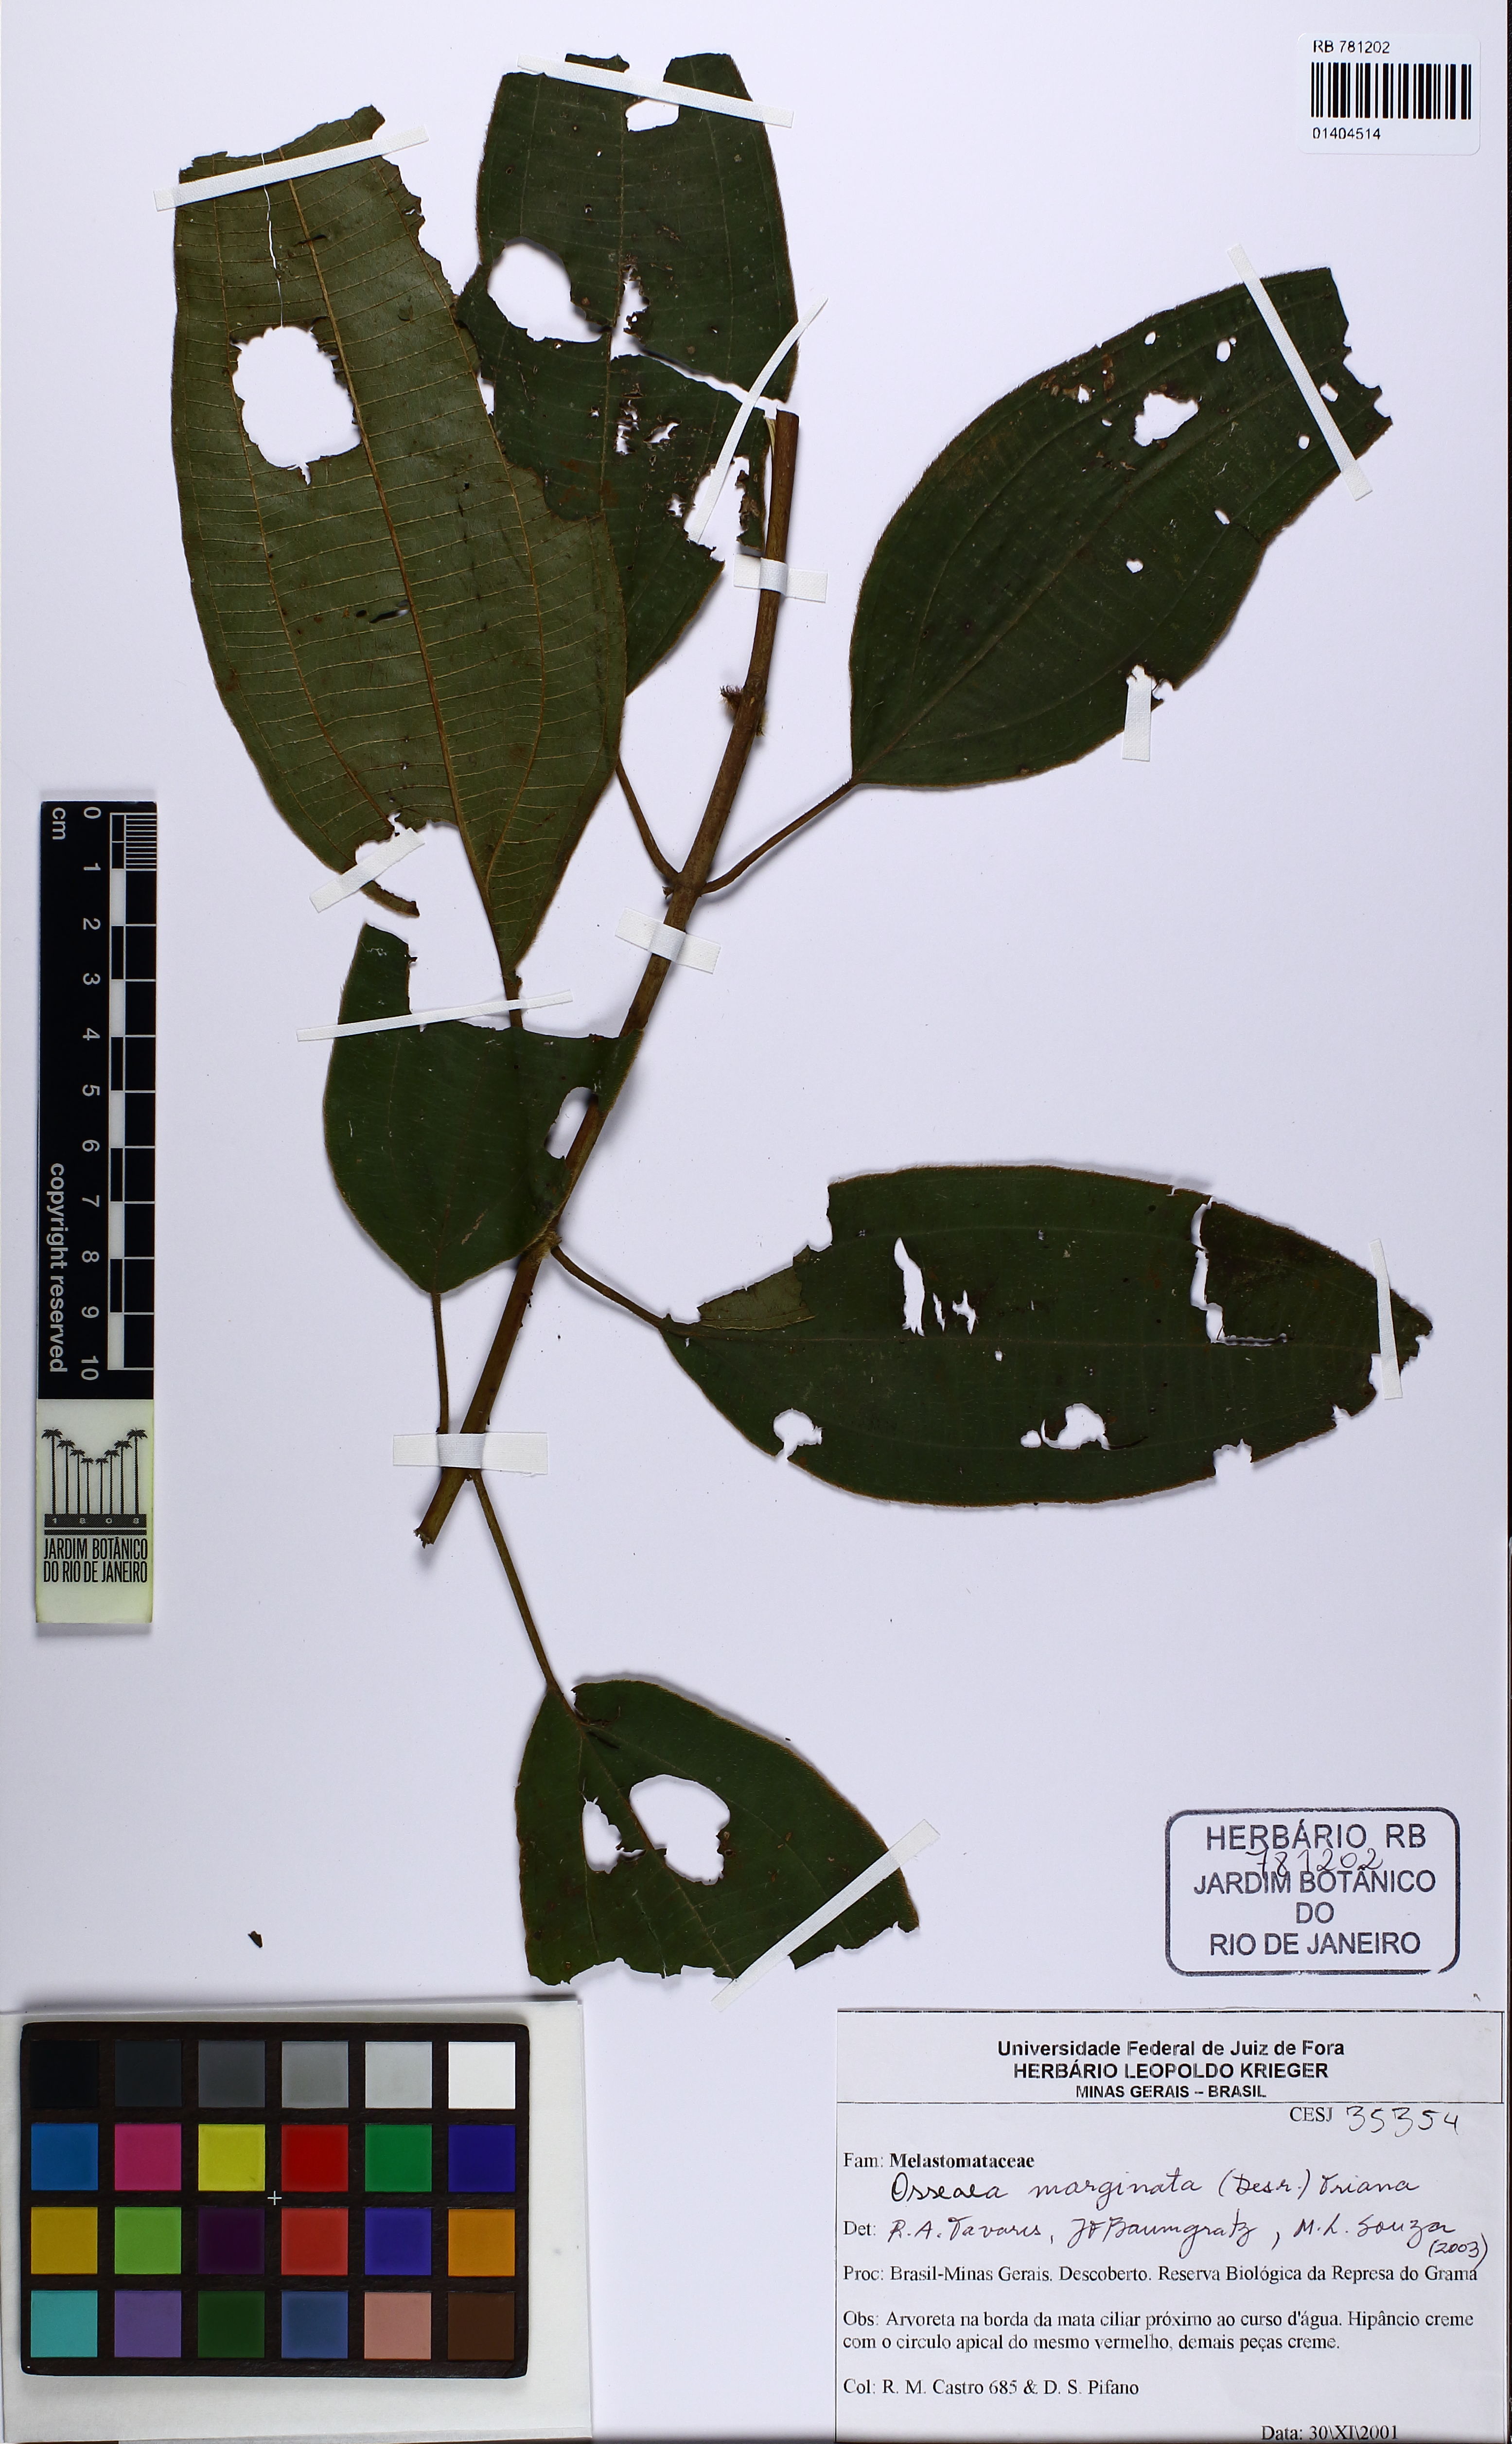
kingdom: Plantae
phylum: Tracheophyta
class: Magnoliopsida
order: Myrtales
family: Melastomataceae
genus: Miconia
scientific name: Miconia leamarginata
